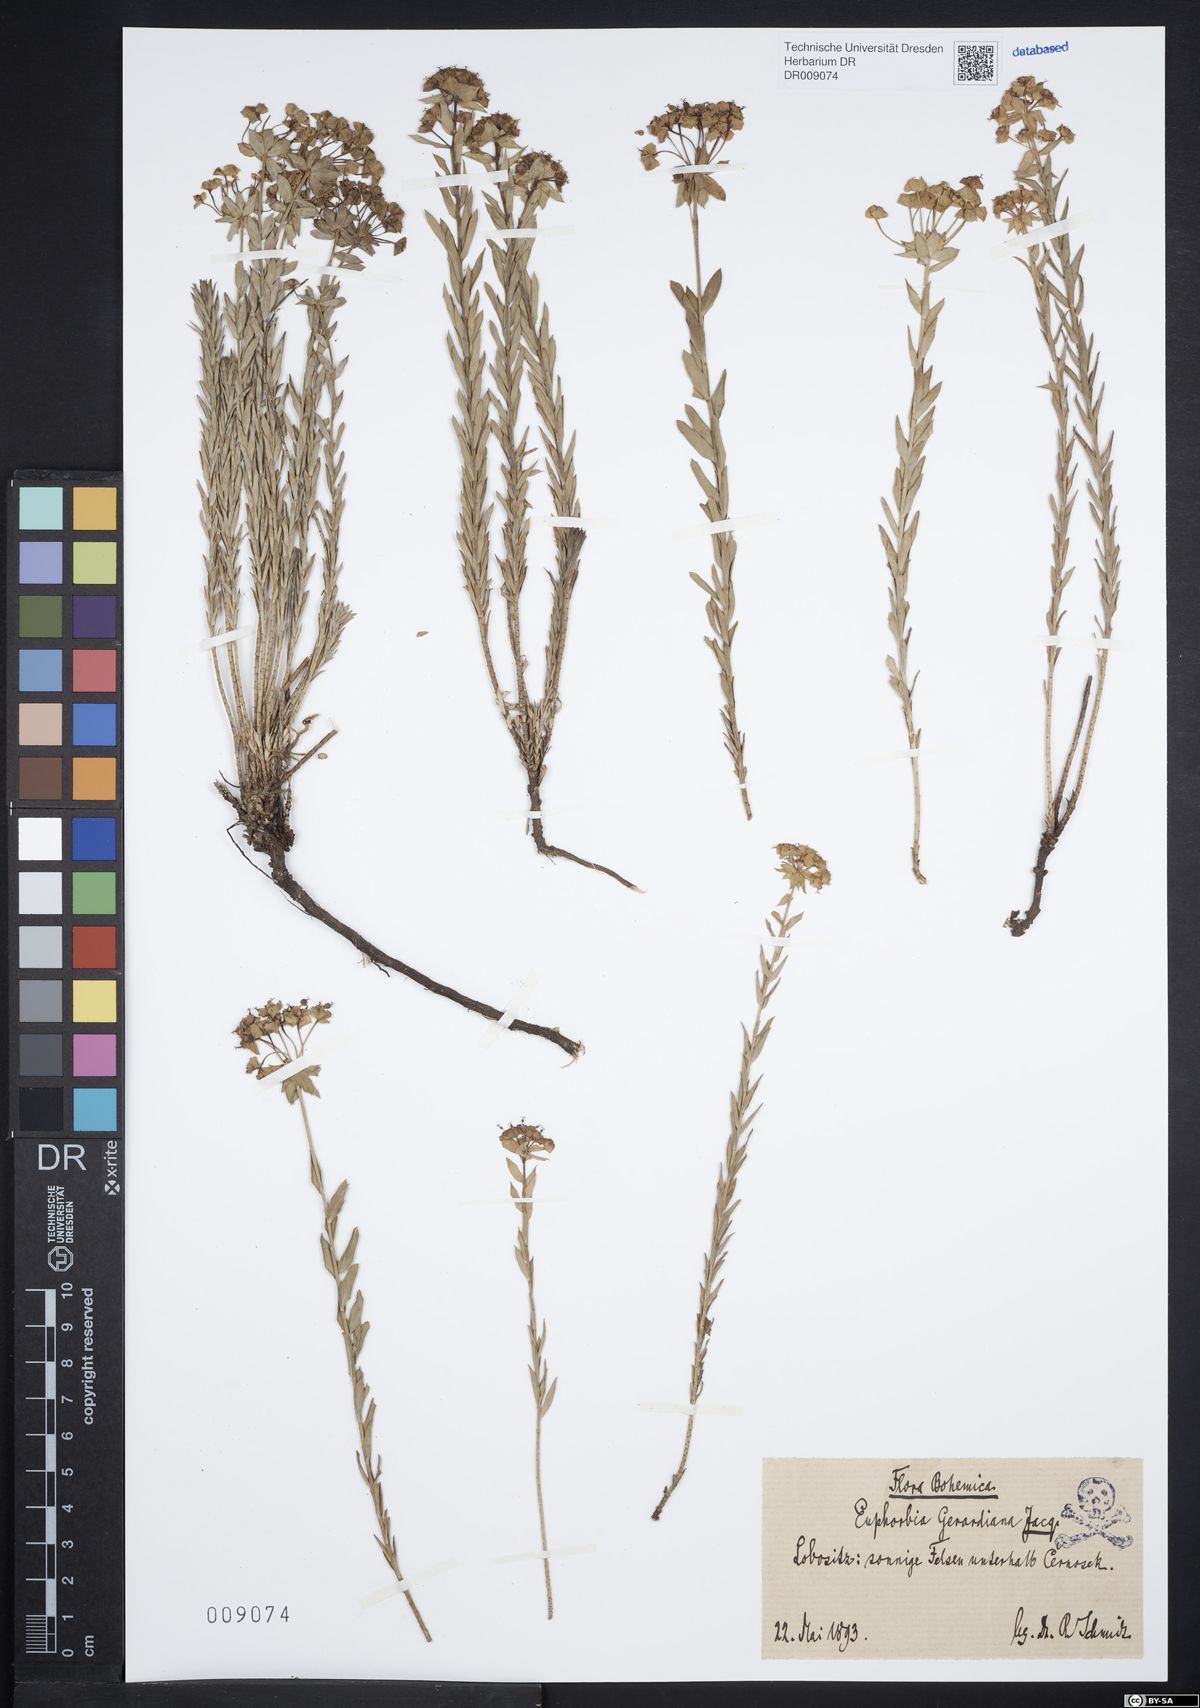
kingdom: Plantae
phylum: Tracheophyta
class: Magnoliopsida
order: Malpighiales
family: Euphorbiaceae
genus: Euphorbia
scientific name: Euphorbia seguieriana
